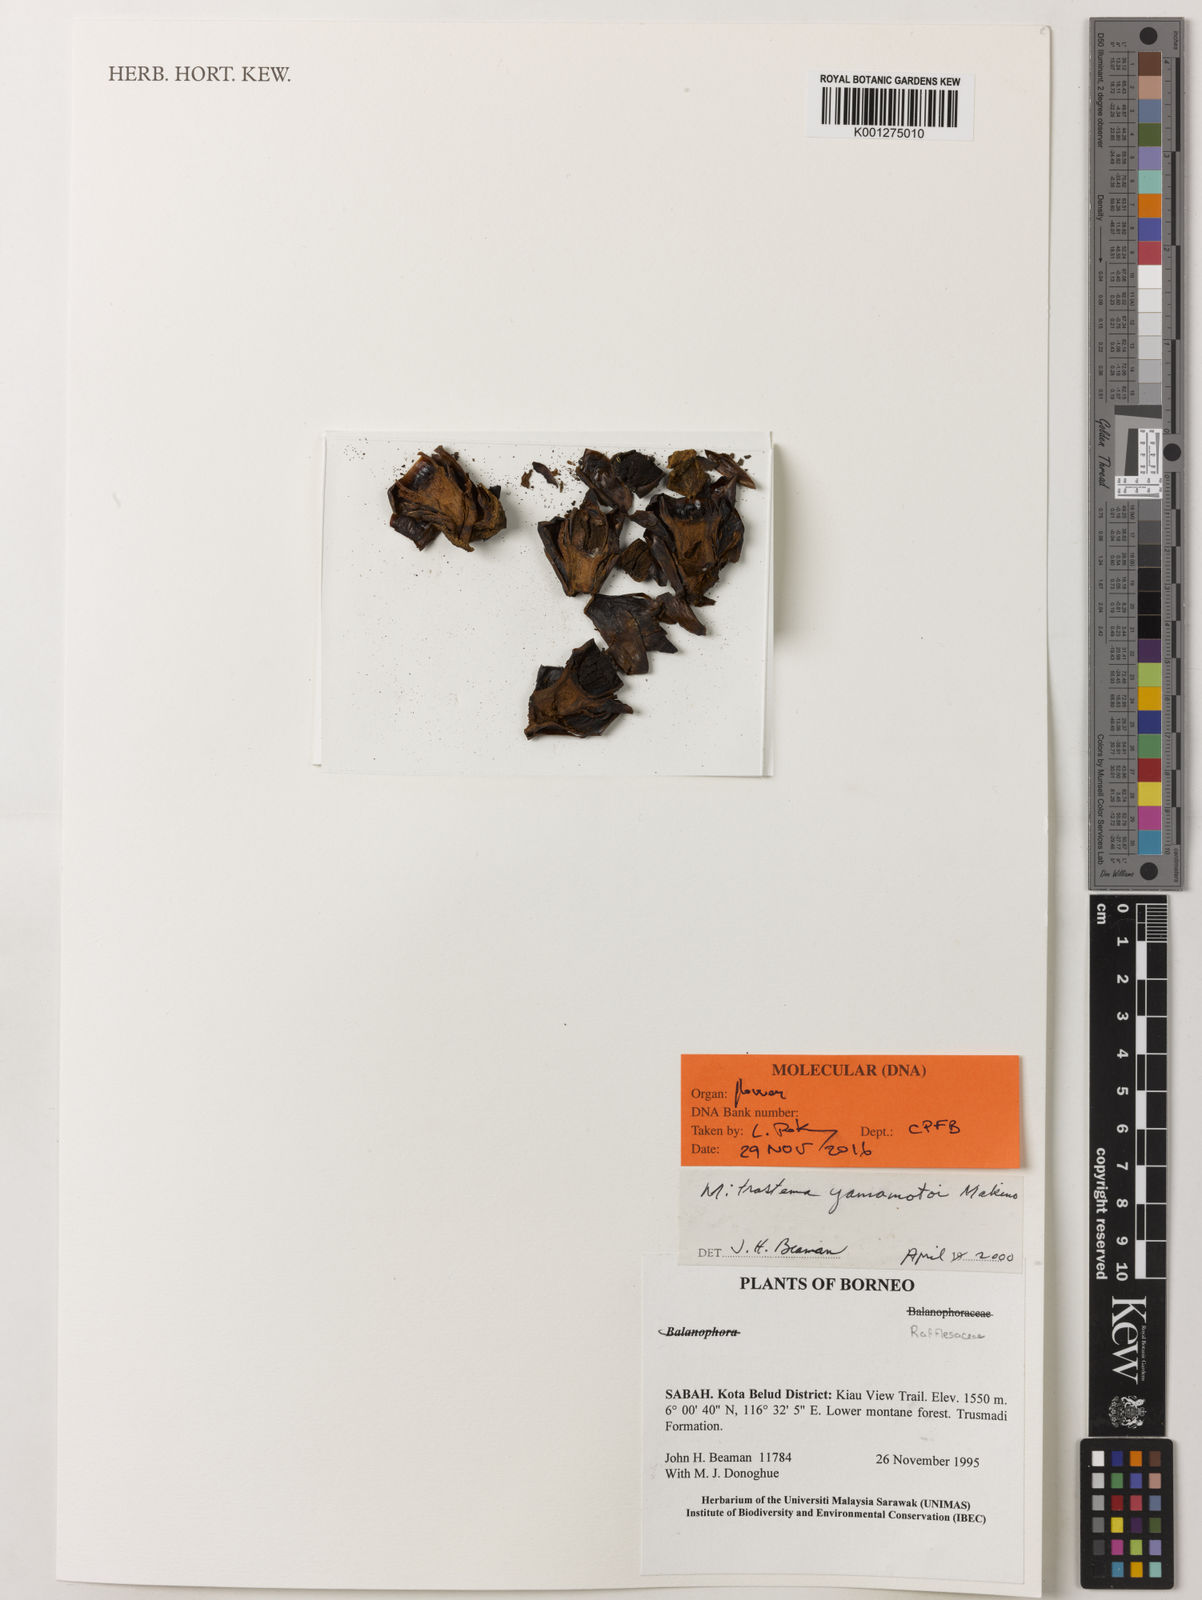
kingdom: Plantae
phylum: Tracheophyta
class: Magnoliopsida
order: Malpighiales
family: Rafflesiaceae
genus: Rafflesia
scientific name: Rafflesia
